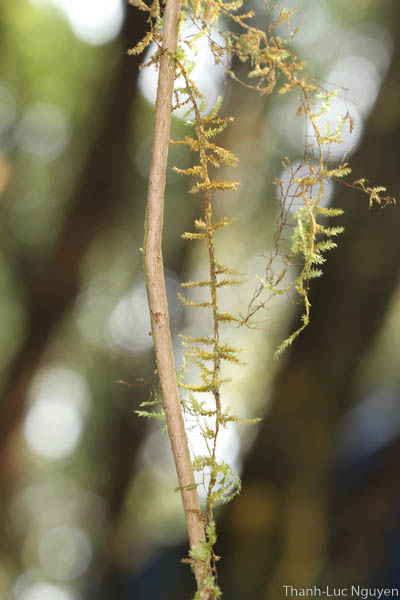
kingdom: Plantae
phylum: Bryophyta
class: Bryopsida
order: Hypnales
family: Meteoriaceae
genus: Aerobryidium
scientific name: Aerobryidium levieri
